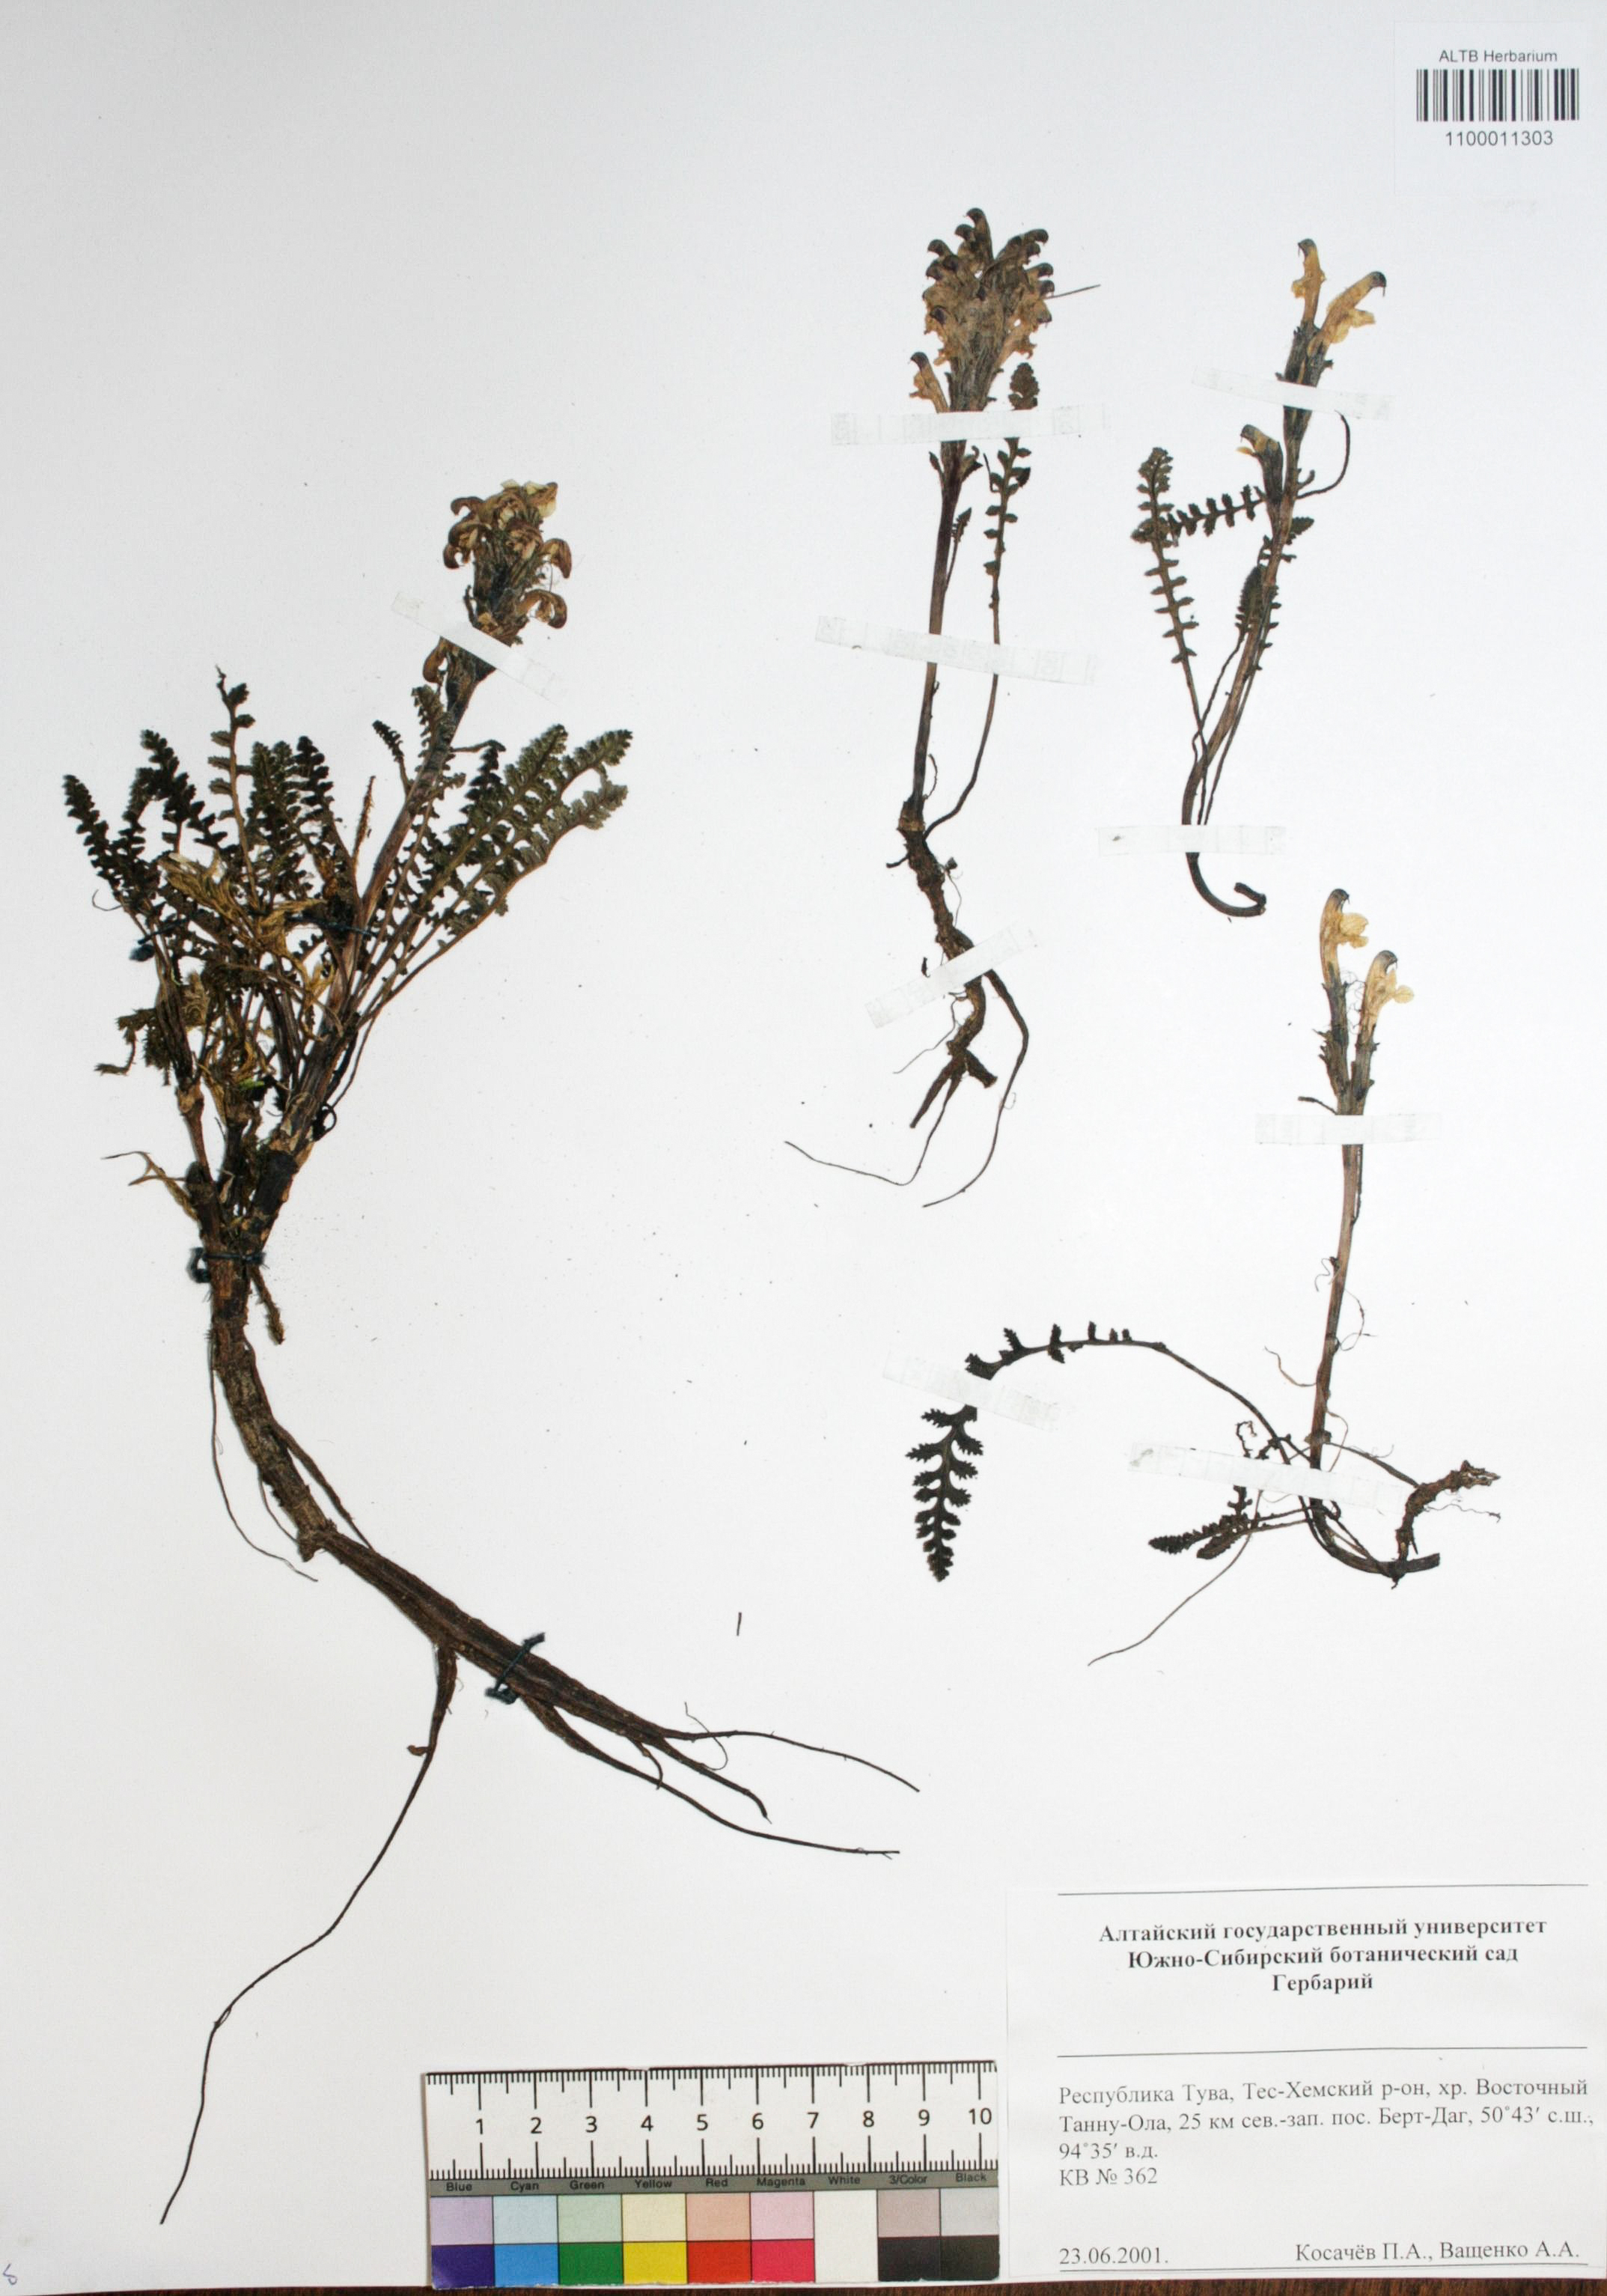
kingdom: Plantae
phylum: Tracheophyta
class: Magnoliopsida
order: Caryophyllales
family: Caryophyllaceae
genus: Silene
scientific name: Silene graminifolia
